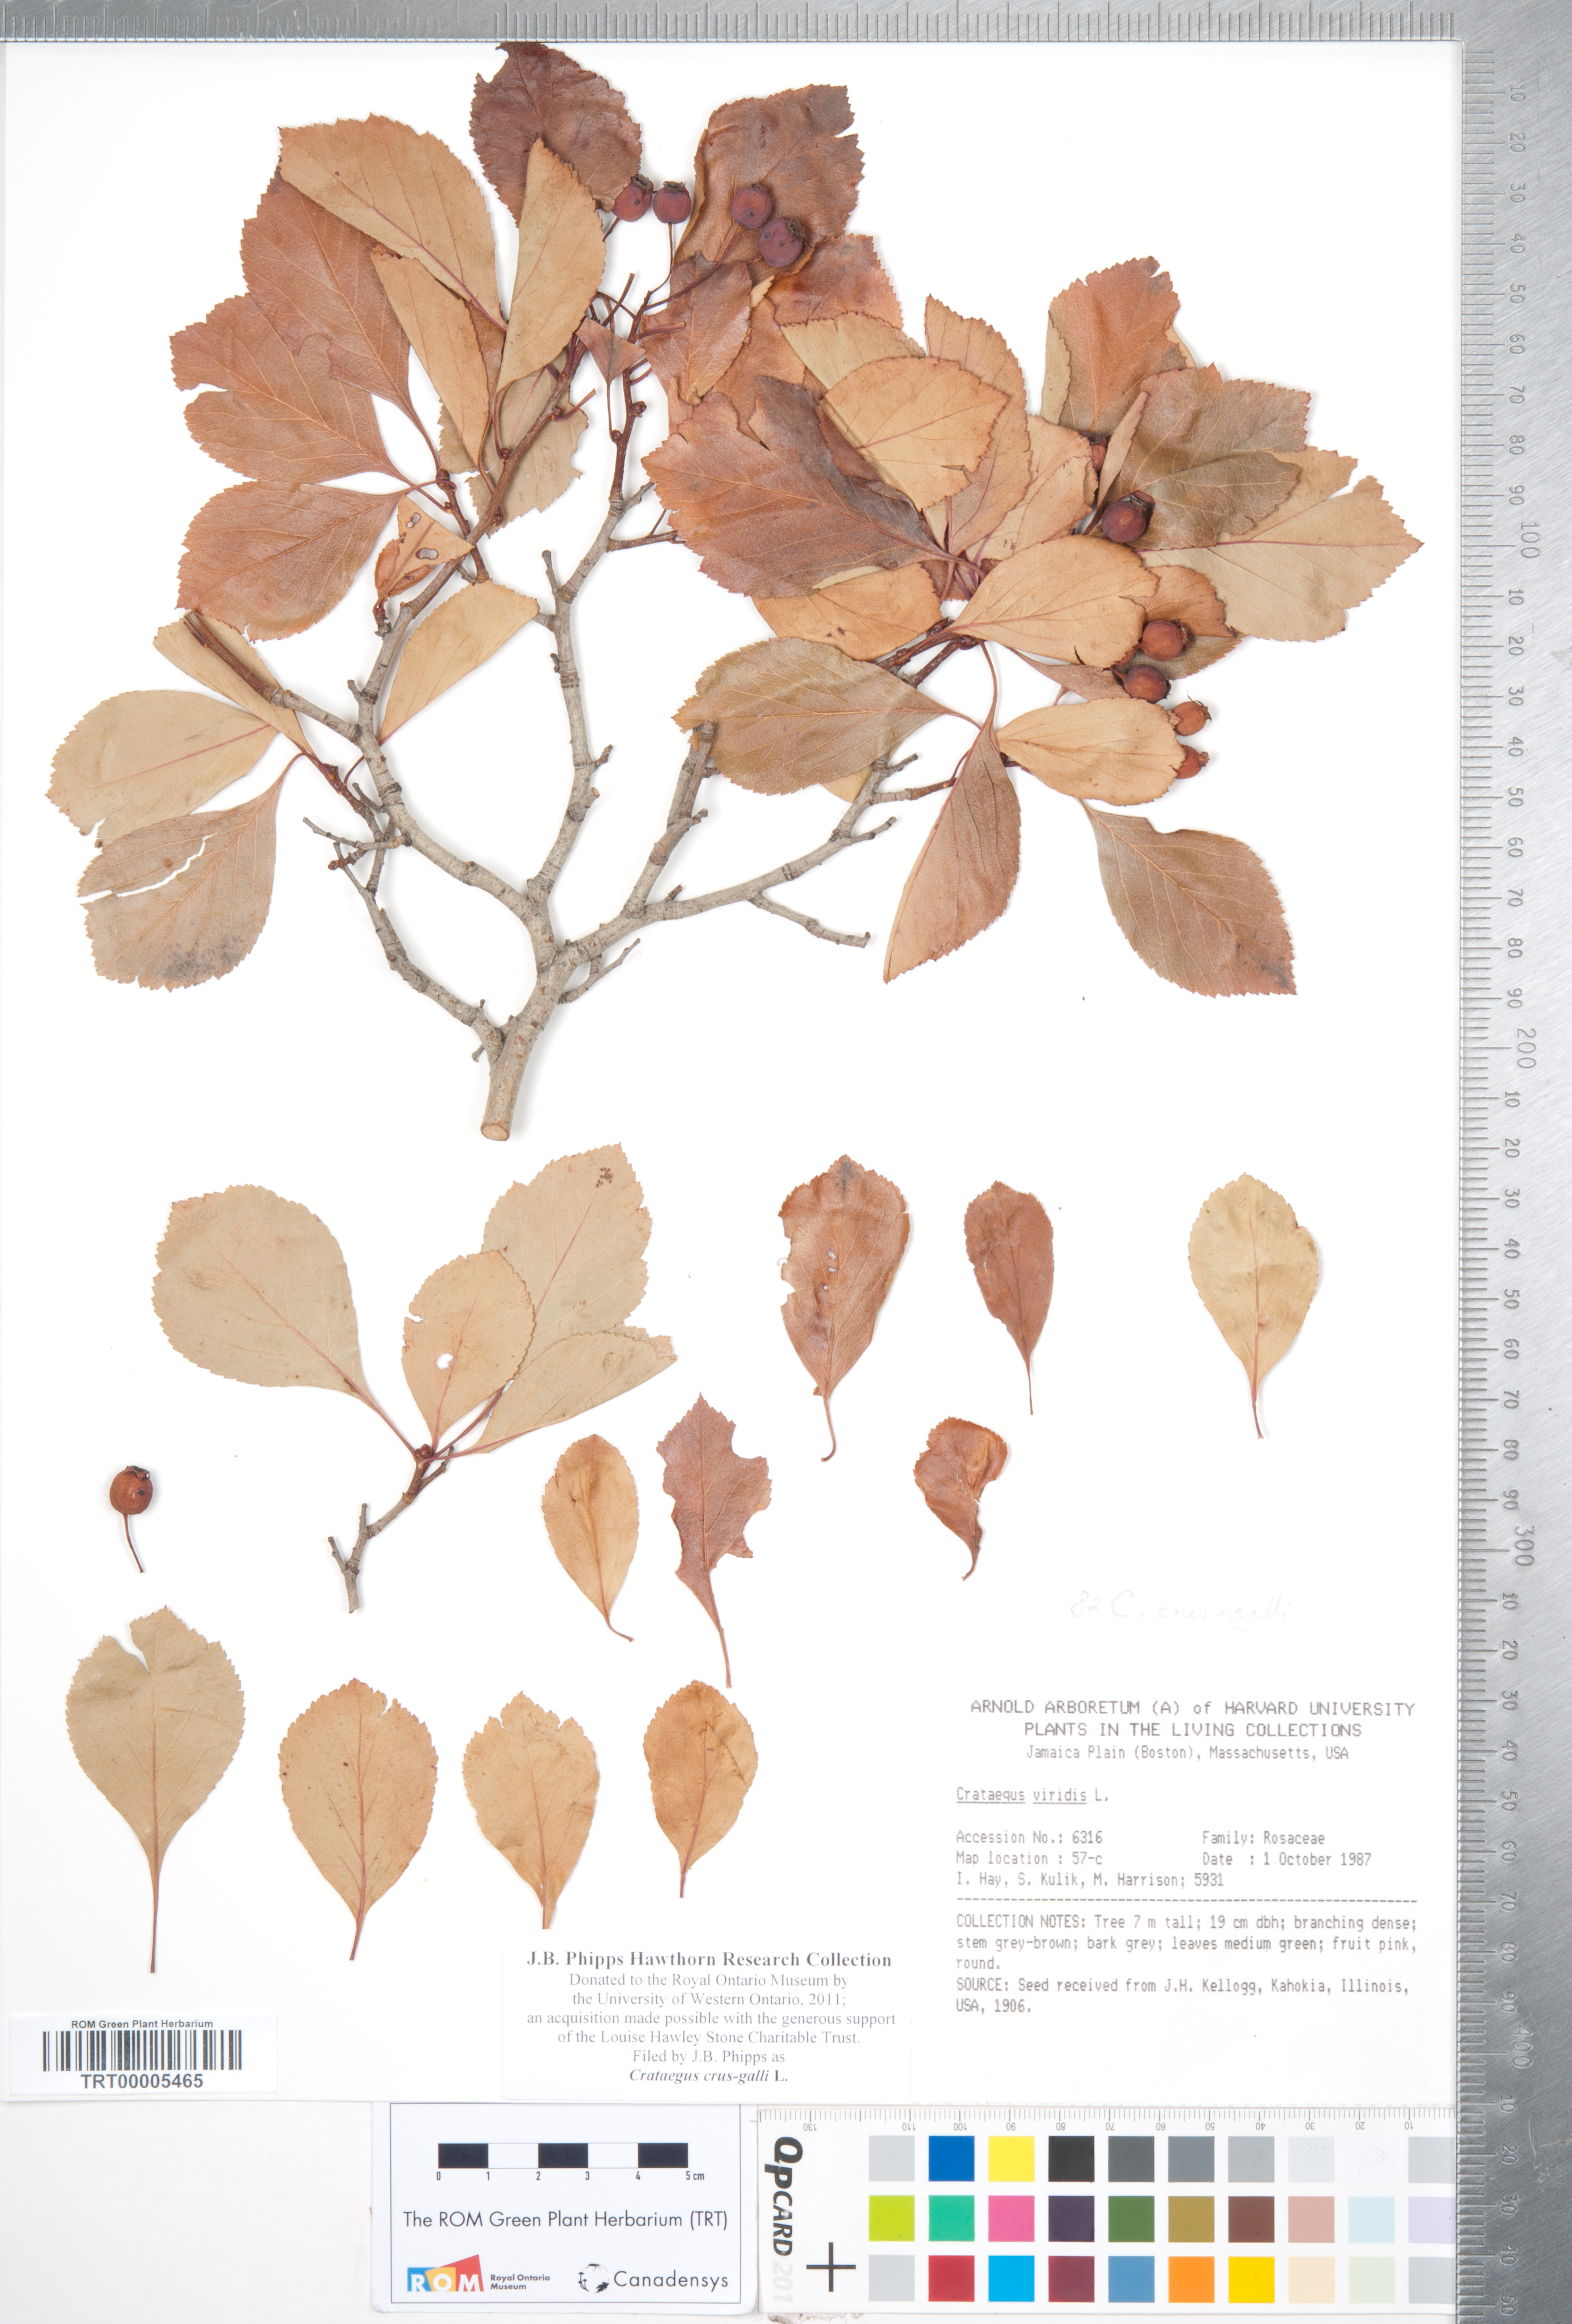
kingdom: Plantae
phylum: Tracheophyta
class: Magnoliopsida
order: Rosales
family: Rosaceae
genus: Crataegus
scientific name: Crataegus crus-galli
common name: Cockspurthorn
